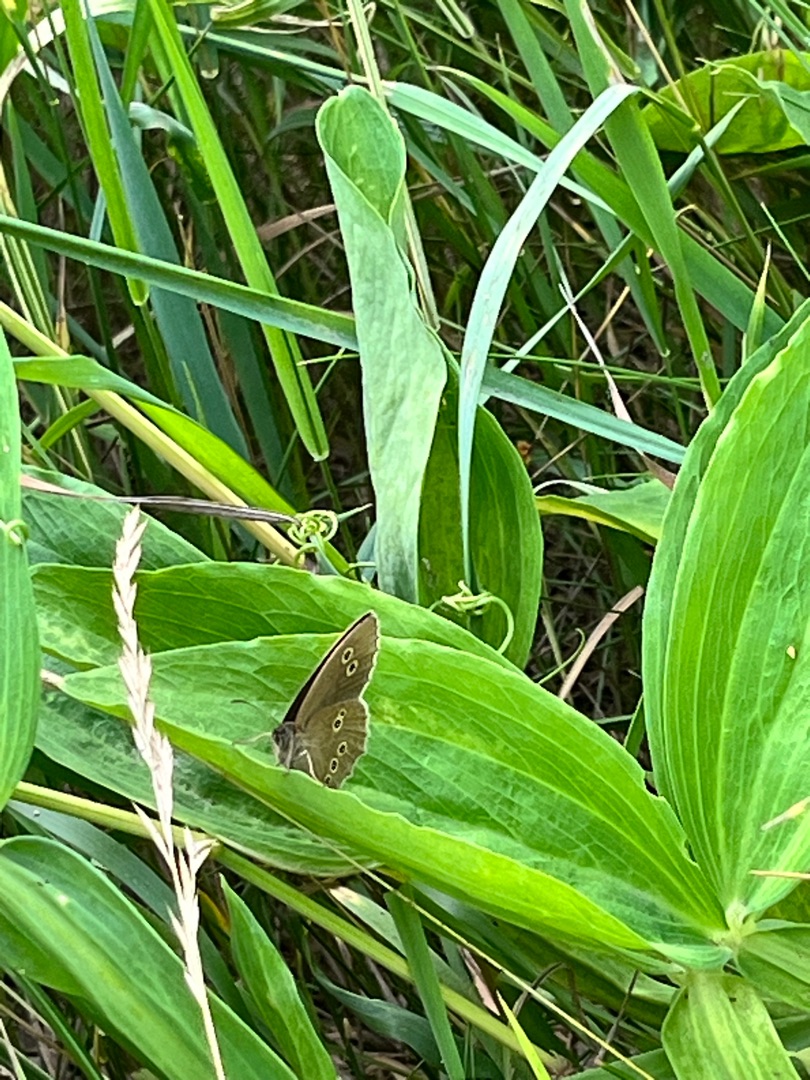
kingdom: Animalia
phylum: Arthropoda
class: Insecta
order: Lepidoptera
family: Nymphalidae
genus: Aphantopus
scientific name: Aphantopus hyperantus
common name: Engrandøje
